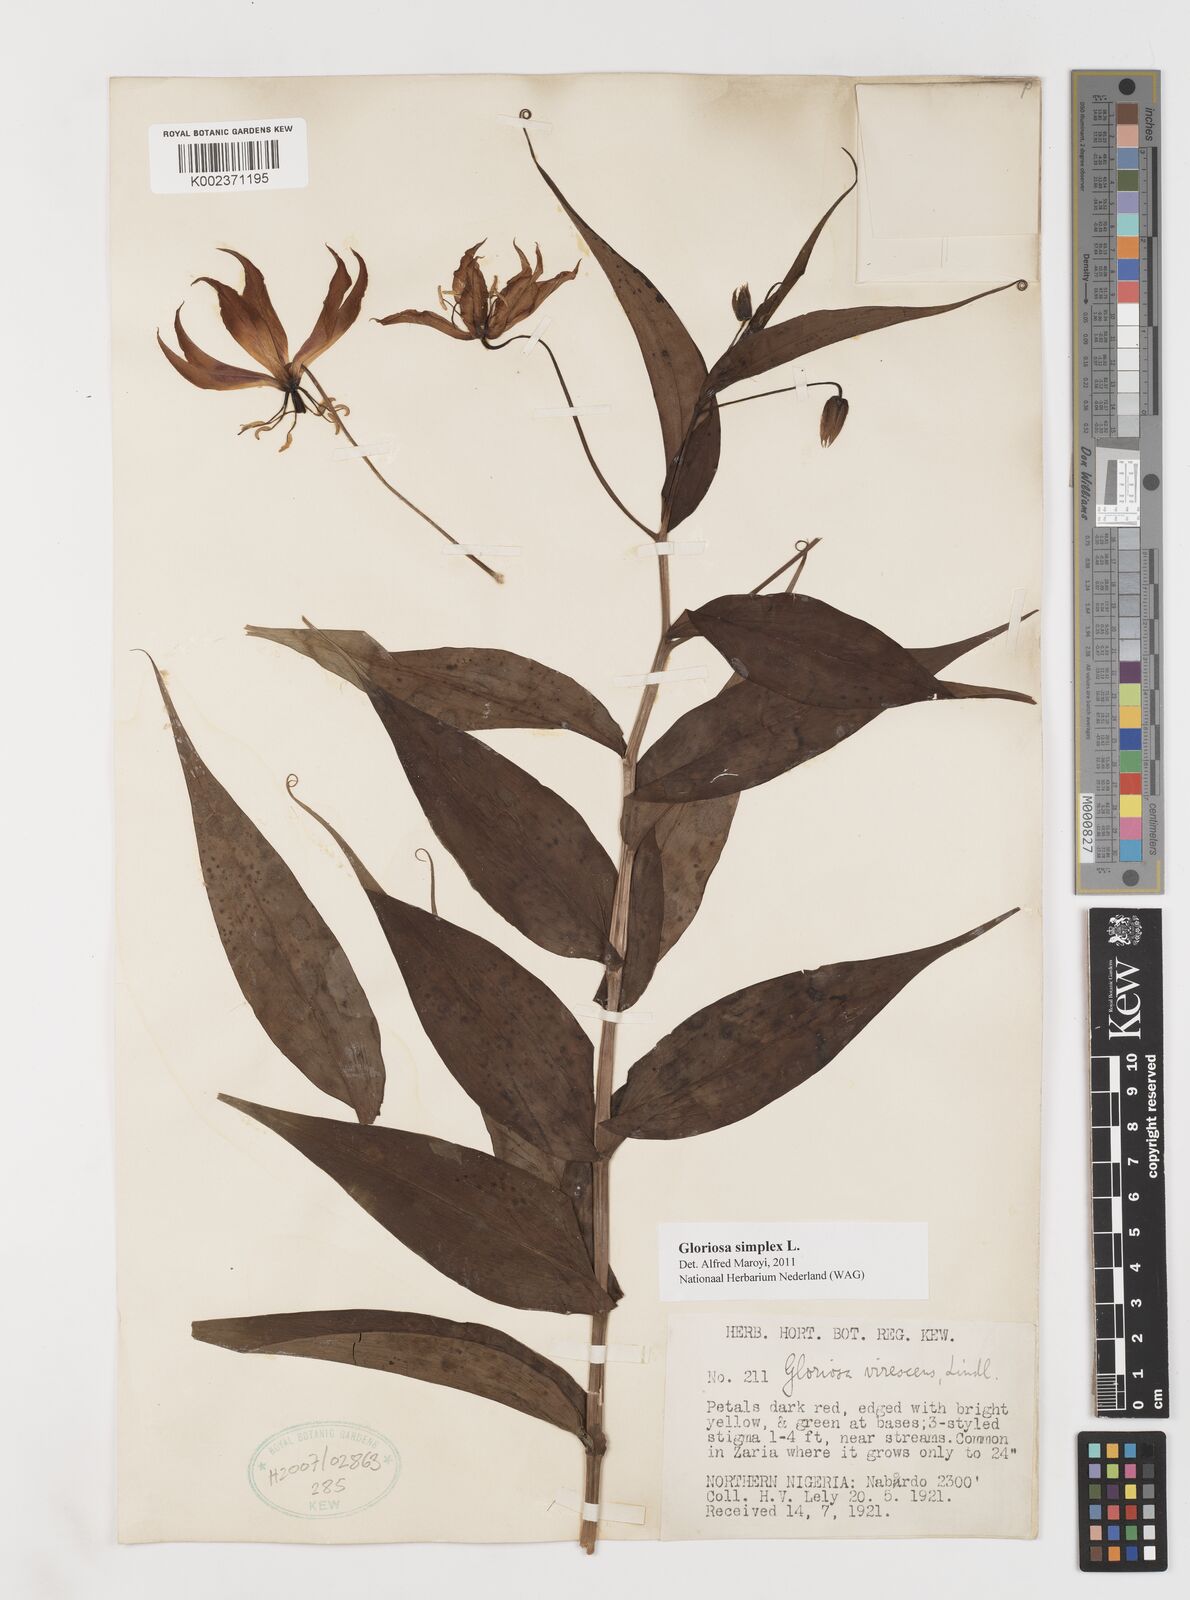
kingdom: Plantae
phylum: Tracheophyta
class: Liliopsida
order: Liliales
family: Colchicaceae
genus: Gloriosa
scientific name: Gloriosa simplex
